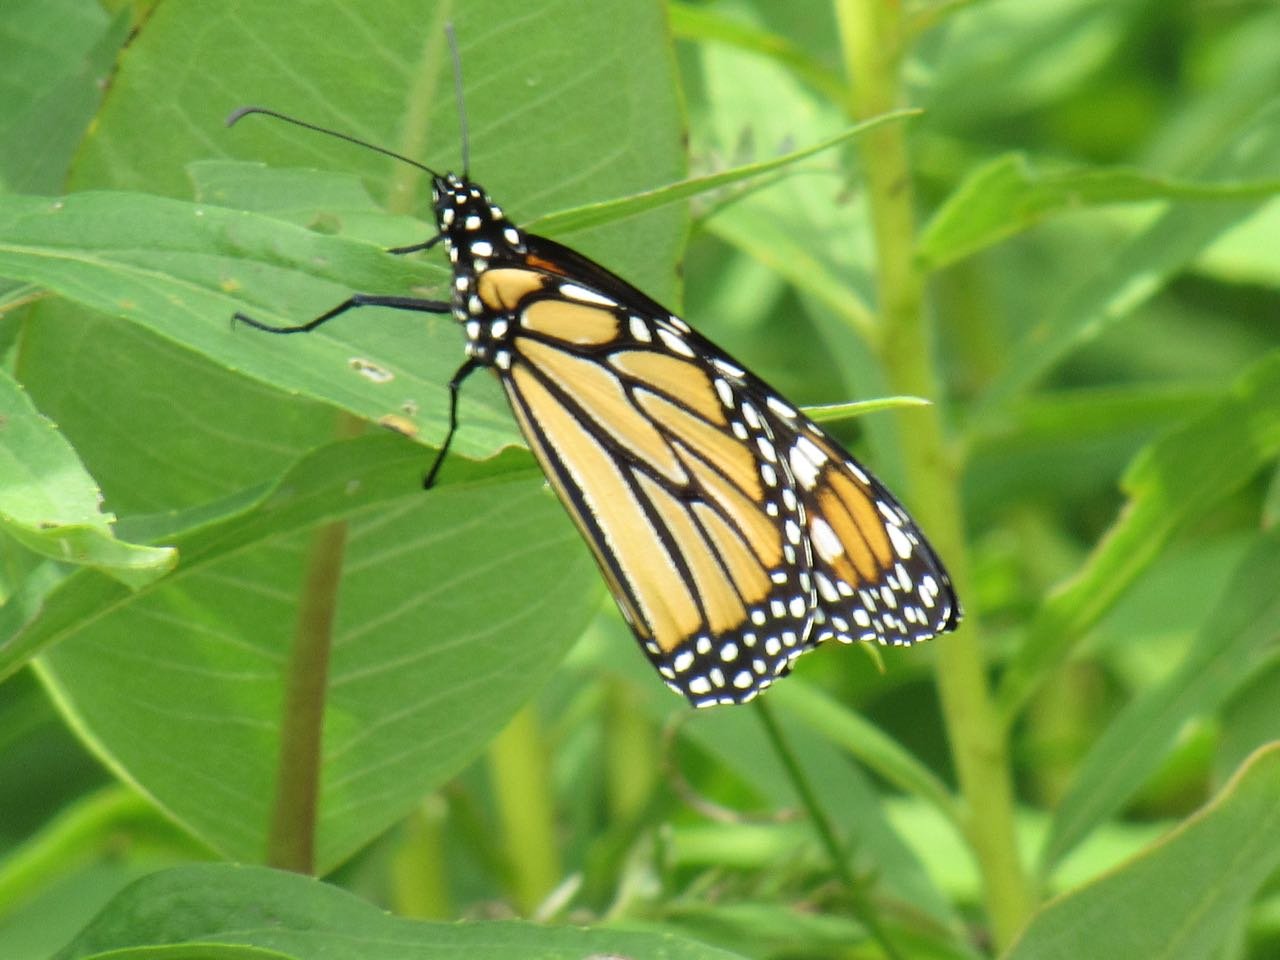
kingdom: Animalia
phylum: Arthropoda
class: Insecta
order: Lepidoptera
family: Nymphalidae
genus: Danaus
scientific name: Danaus plexippus
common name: Monarch
